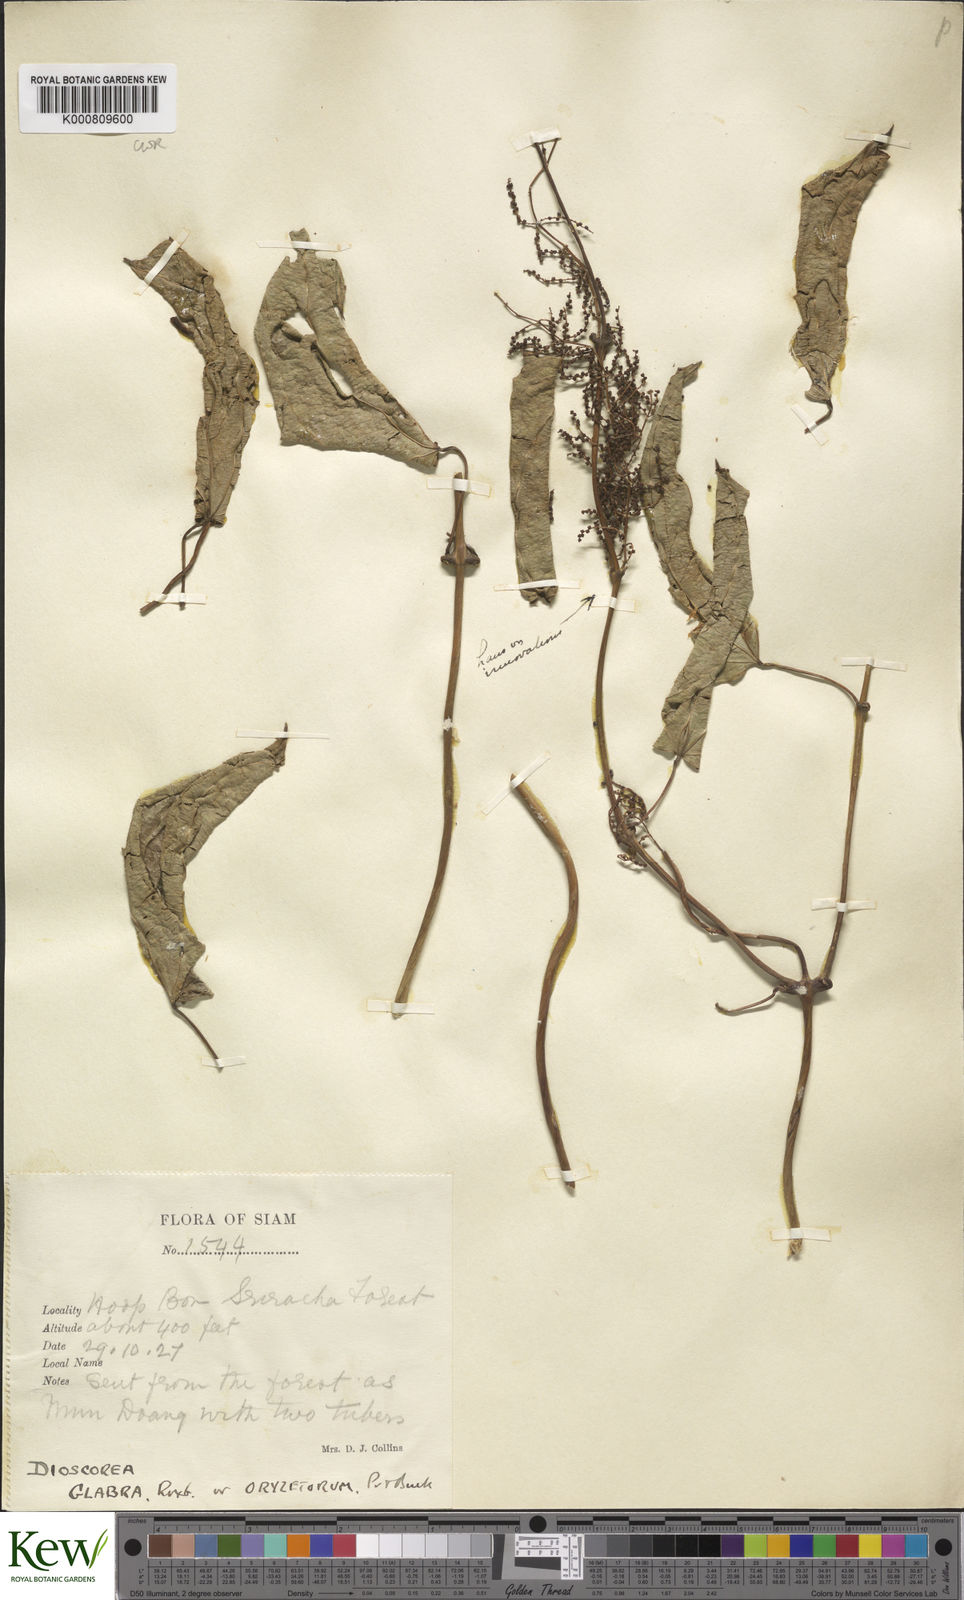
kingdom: Plantae
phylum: Tracheophyta
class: Liliopsida
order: Dioscoreales
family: Dioscoreaceae
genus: Dioscorea
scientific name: Dioscorea glabra
